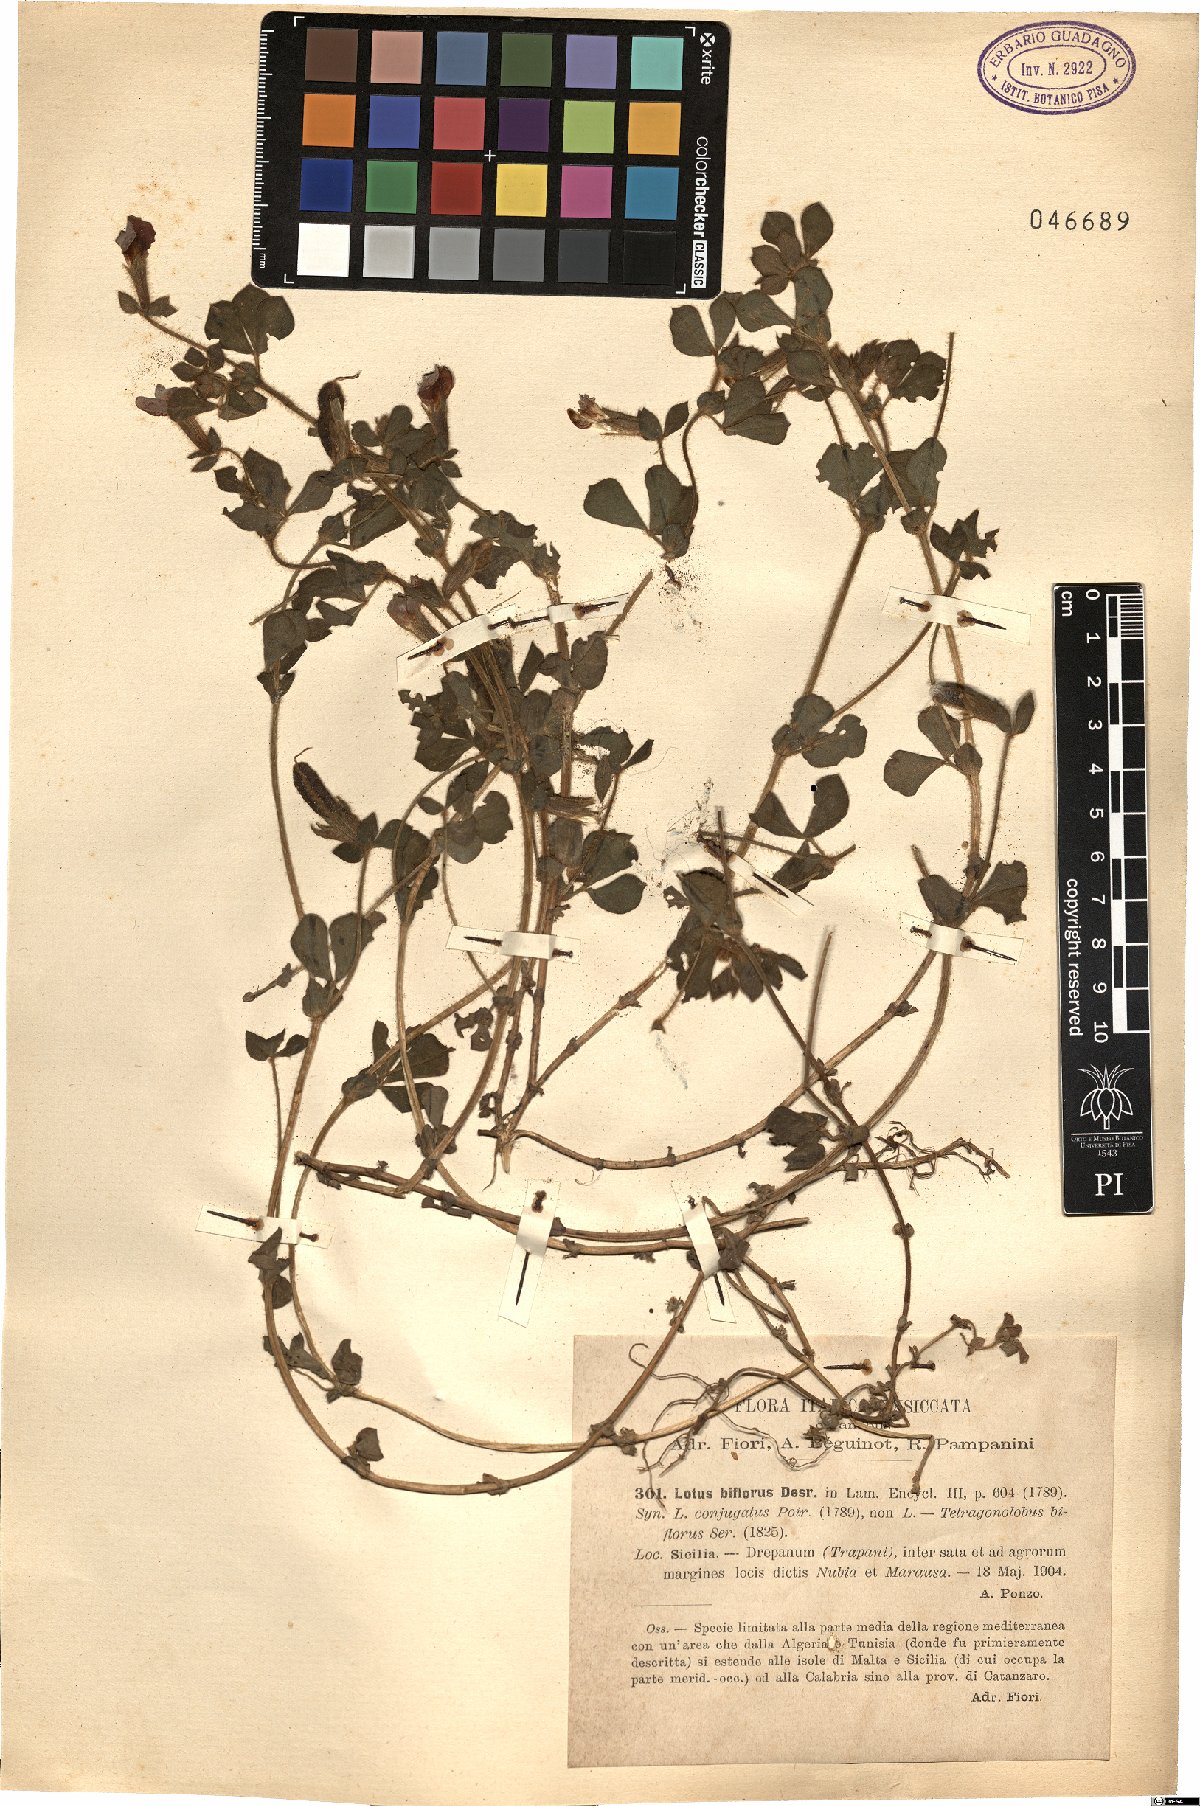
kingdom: Plantae
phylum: Tracheophyta
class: Magnoliopsida
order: Fabales
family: Fabaceae
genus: Lotus
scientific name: Lotus biflorus
